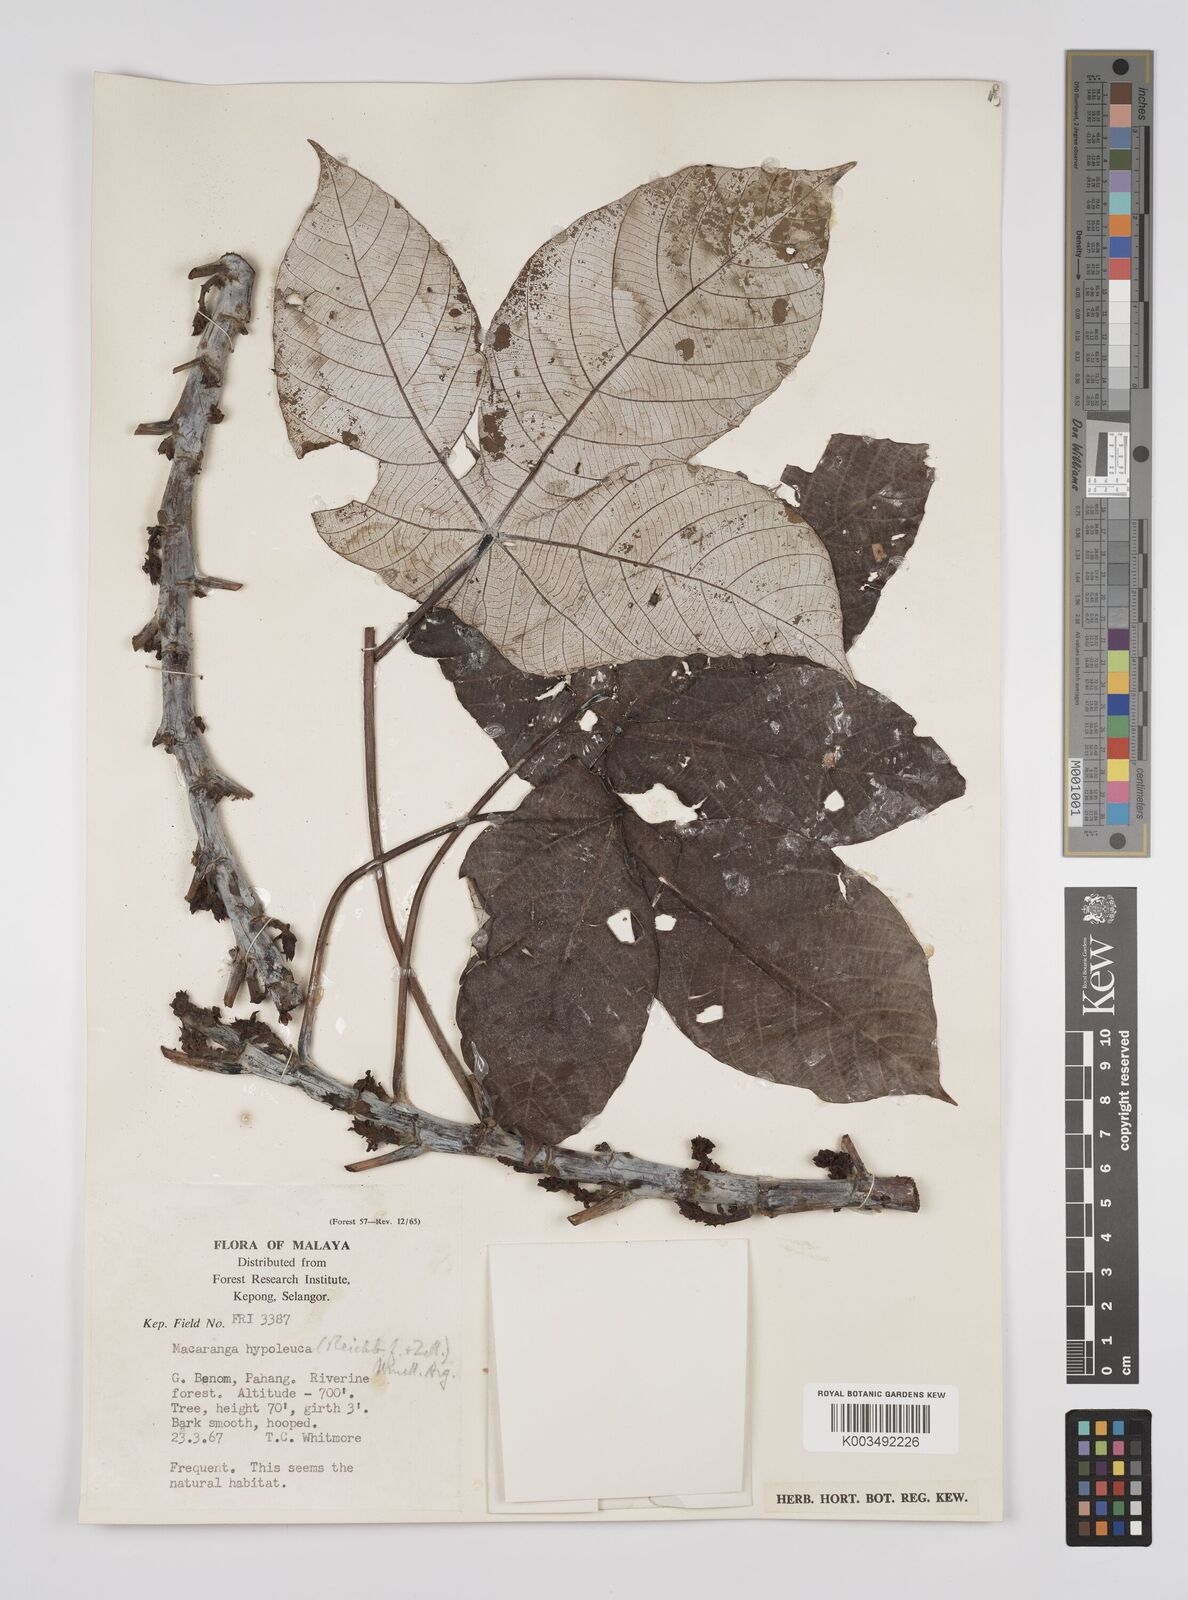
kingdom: Plantae
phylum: Tracheophyta
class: Magnoliopsida
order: Malpighiales
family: Euphorbiaceae
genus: Macaranga
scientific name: Macaranga hypoleuca
